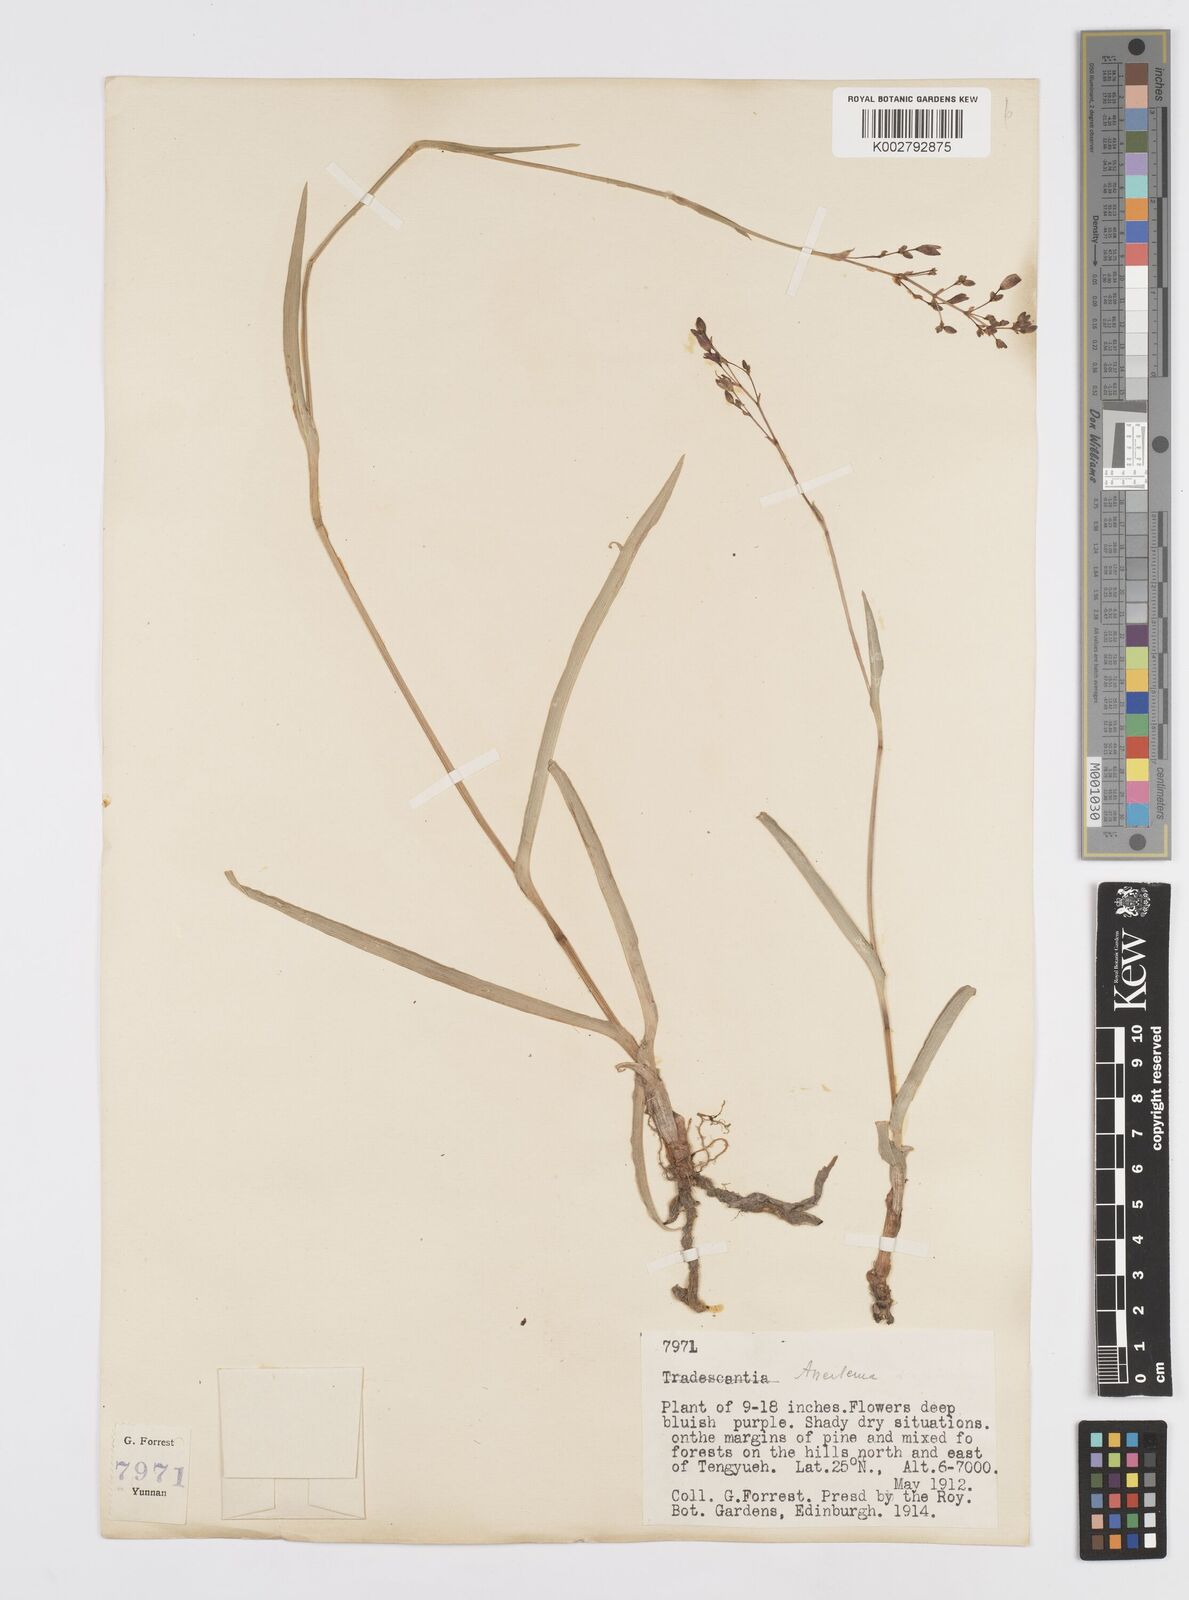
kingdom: Plantae
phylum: Tracheophyta
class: Liliopsida
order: Commelinales
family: Commelinaceae
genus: Murdannia
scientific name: Murdannia
